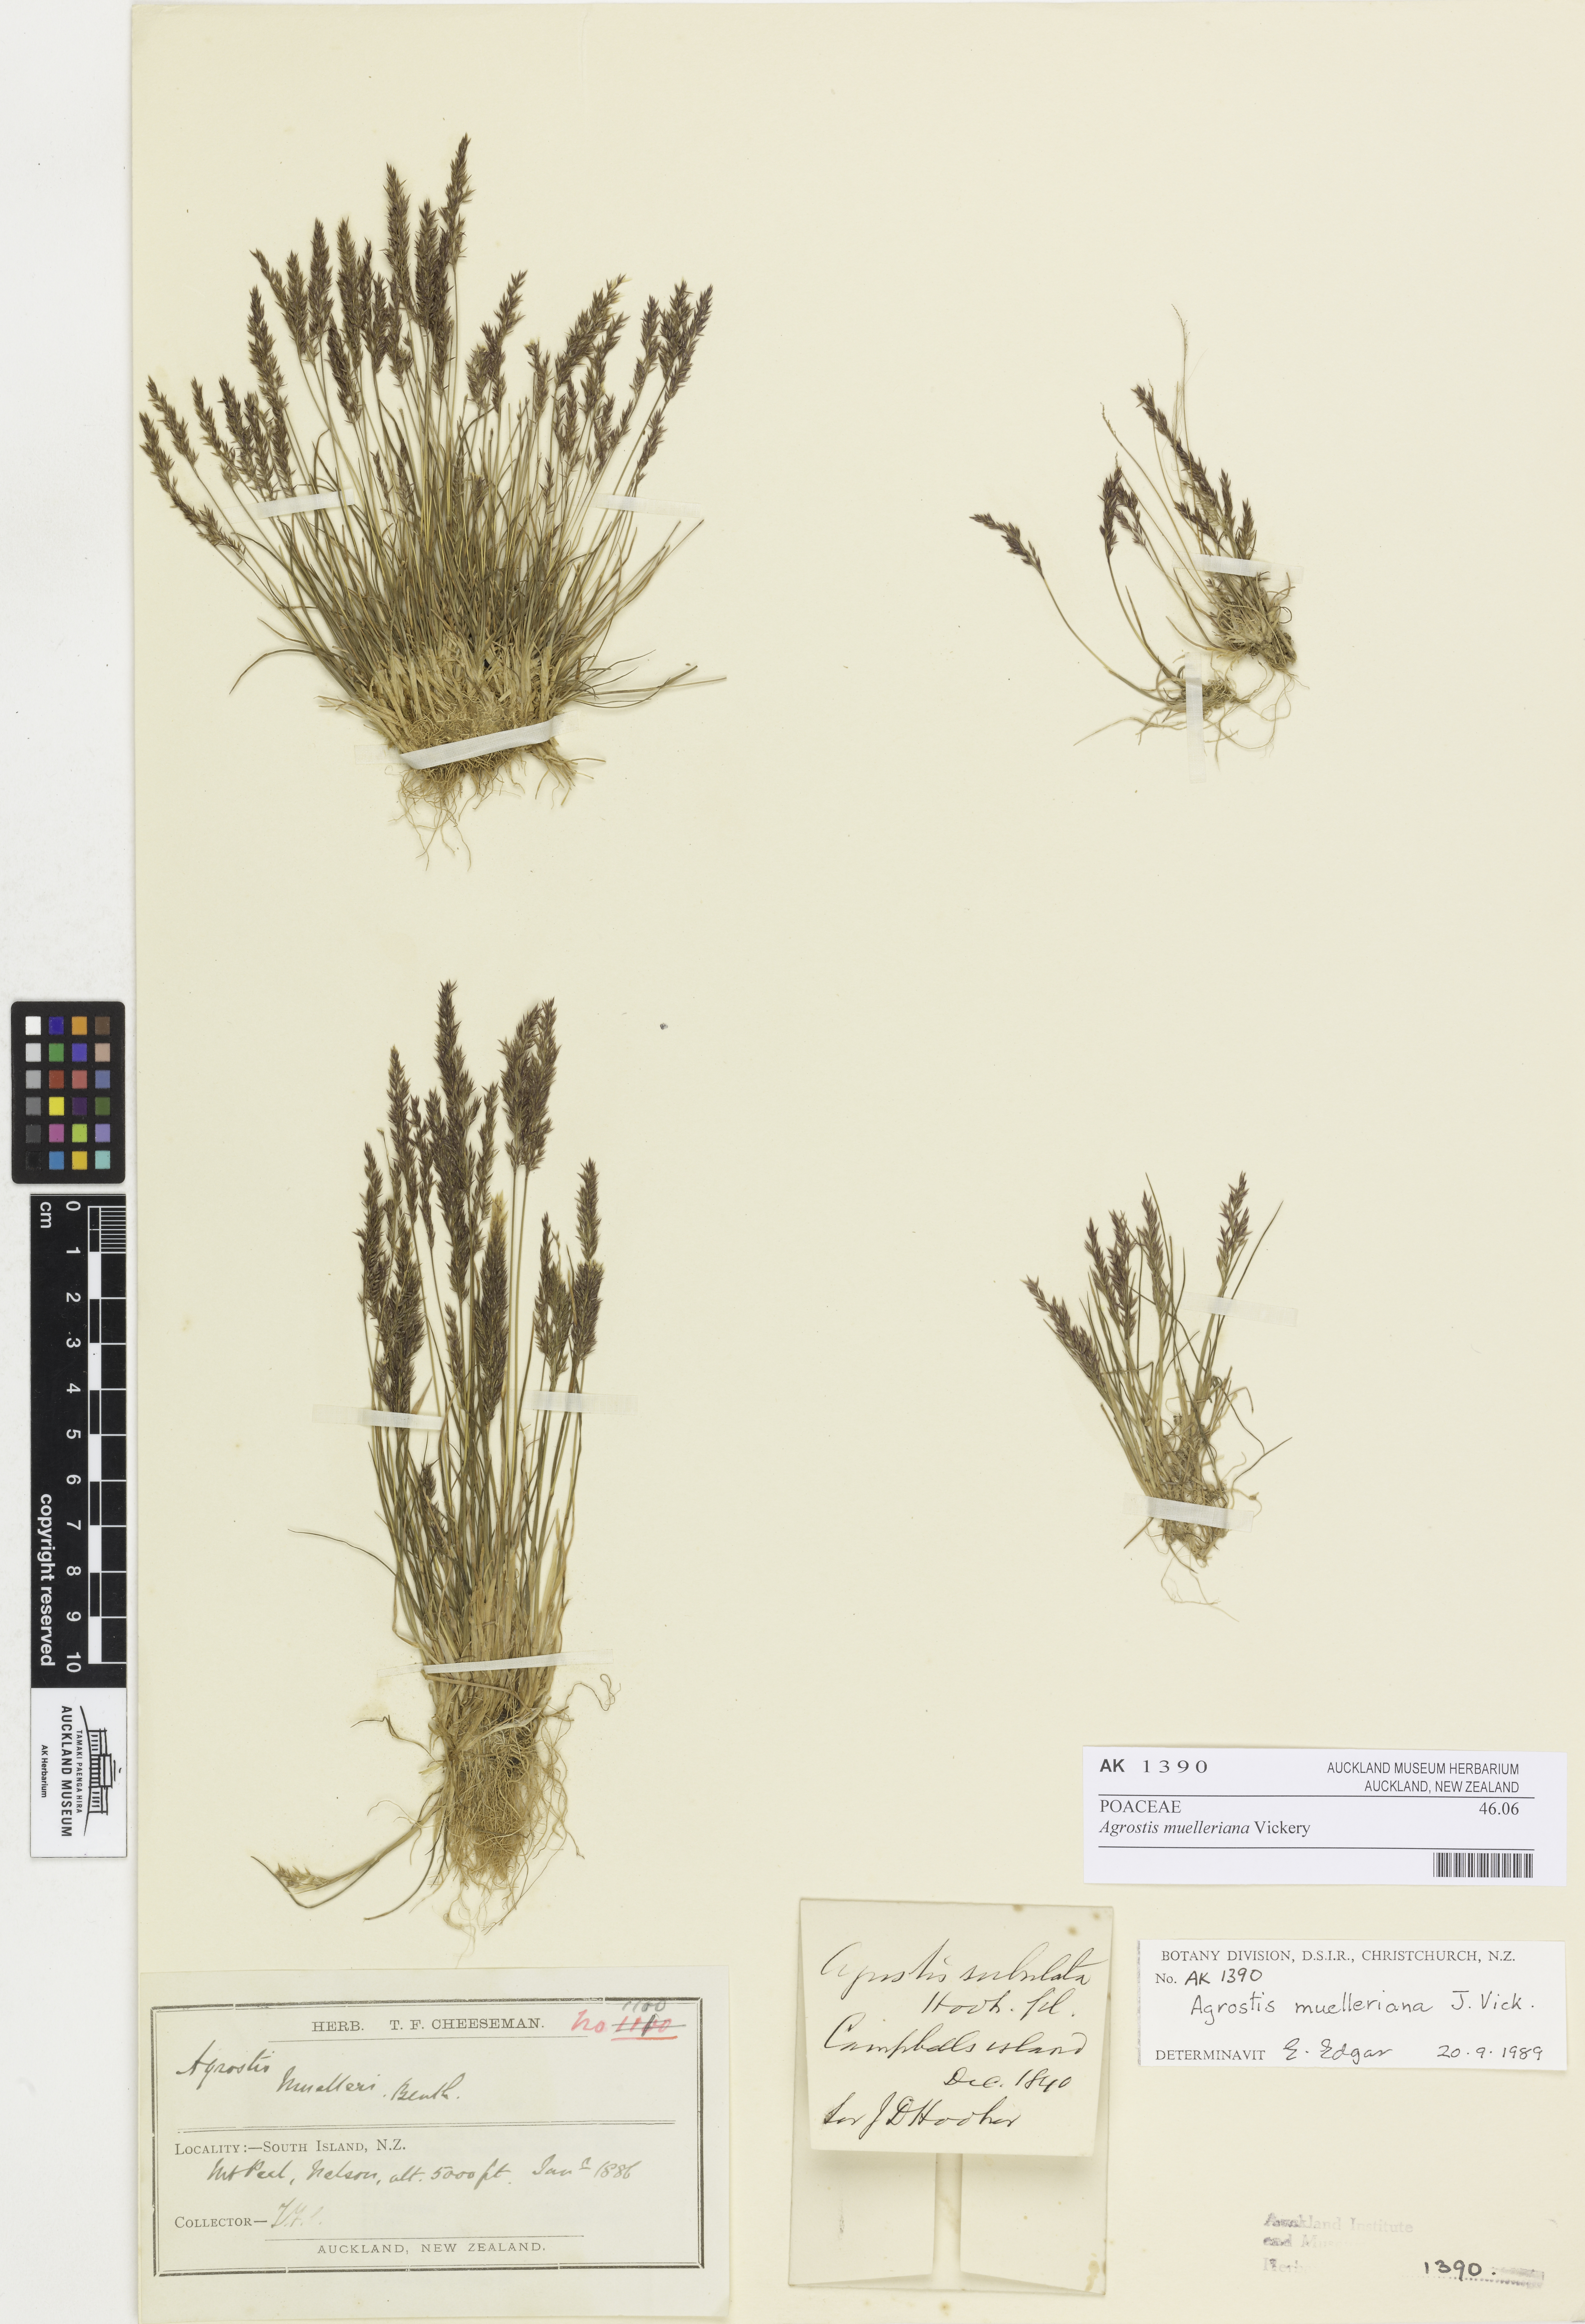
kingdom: Plantae
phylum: Tracheophyta
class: Liliopsida
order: Poales
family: Poaceae
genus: Agrostis
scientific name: Agrostis muelleriana
